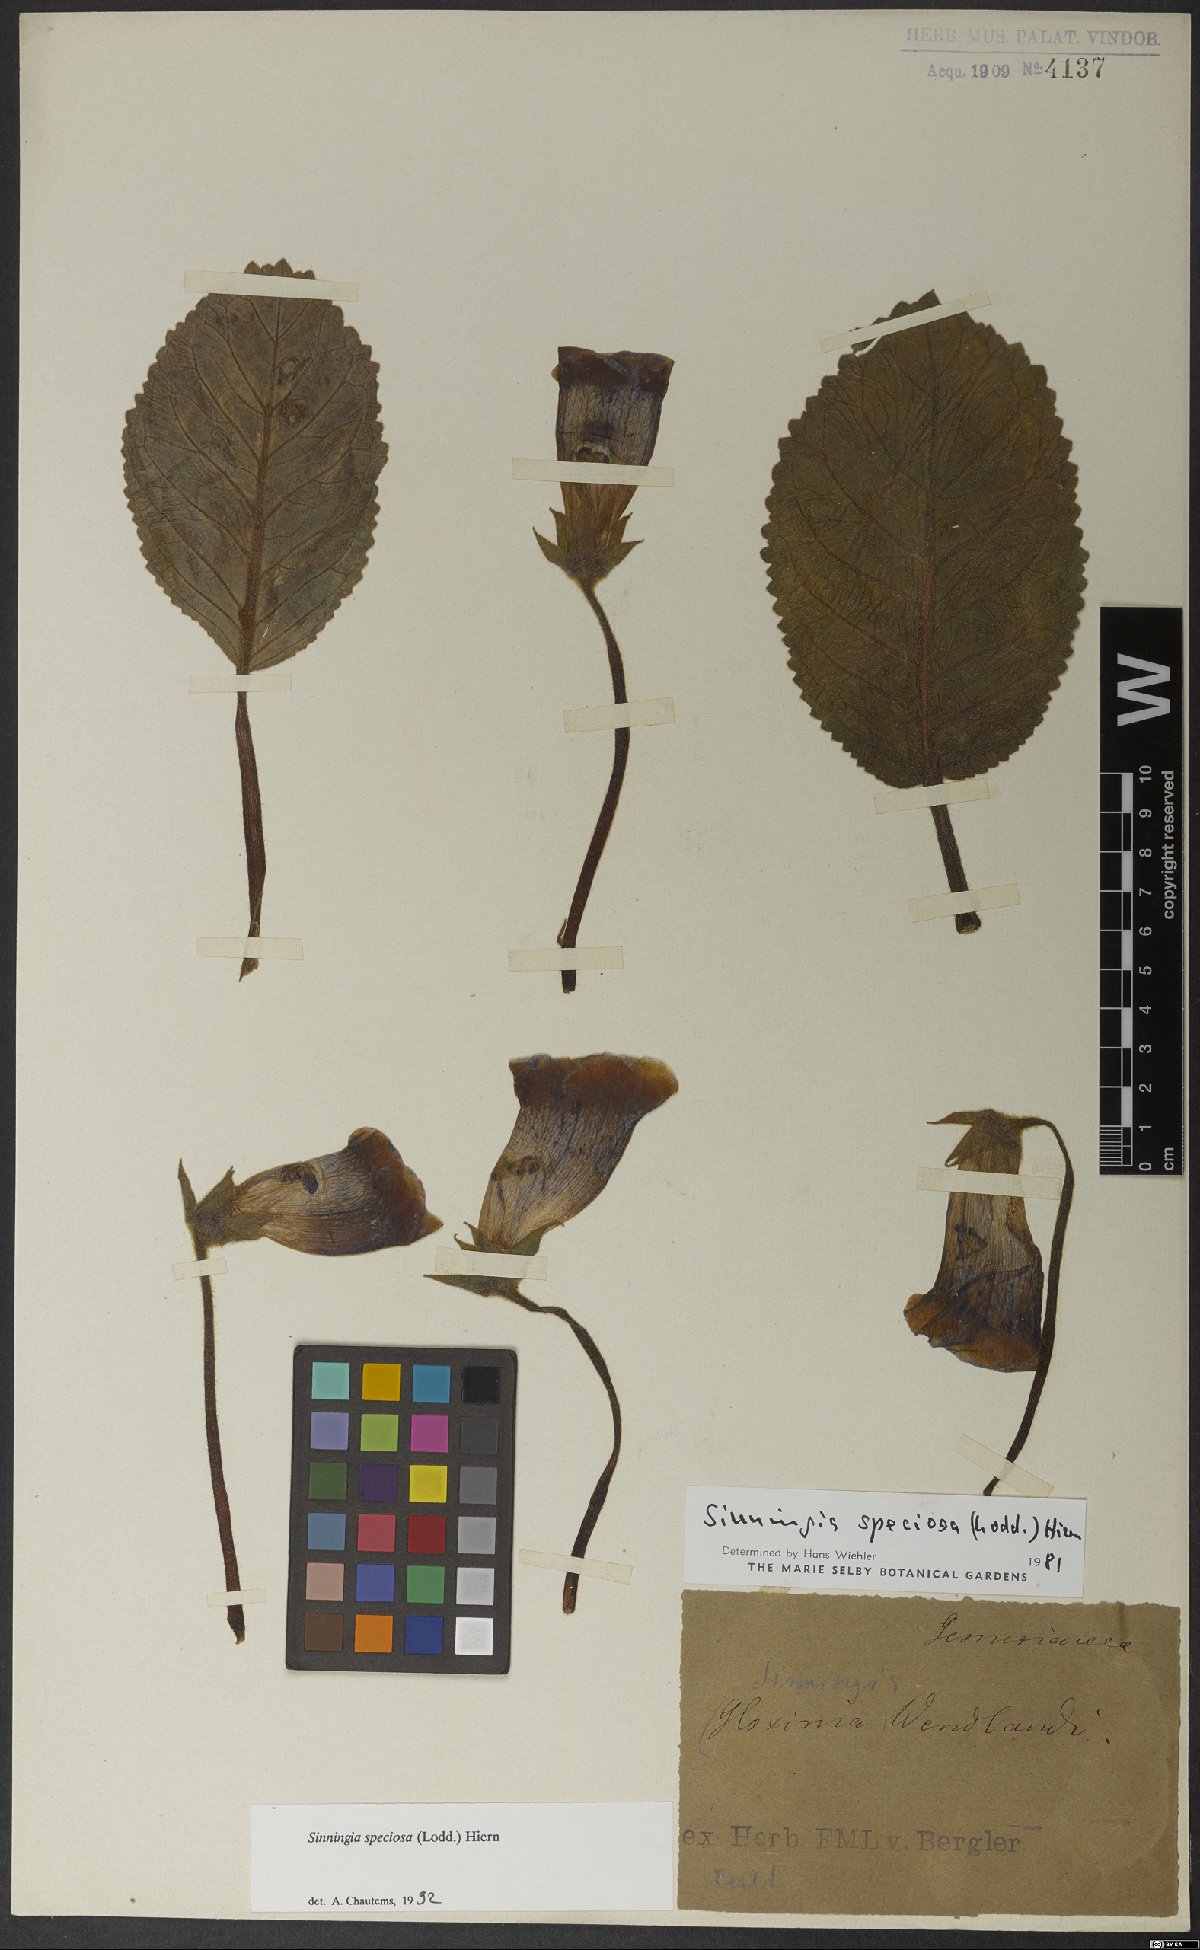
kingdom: Plantae
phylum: Tracheophyta
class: Magnoliopsida
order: Lamiales
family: Gesneriaceae
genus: Sinningia
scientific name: Sinningia speciosa
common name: Brazilian gloxinia
